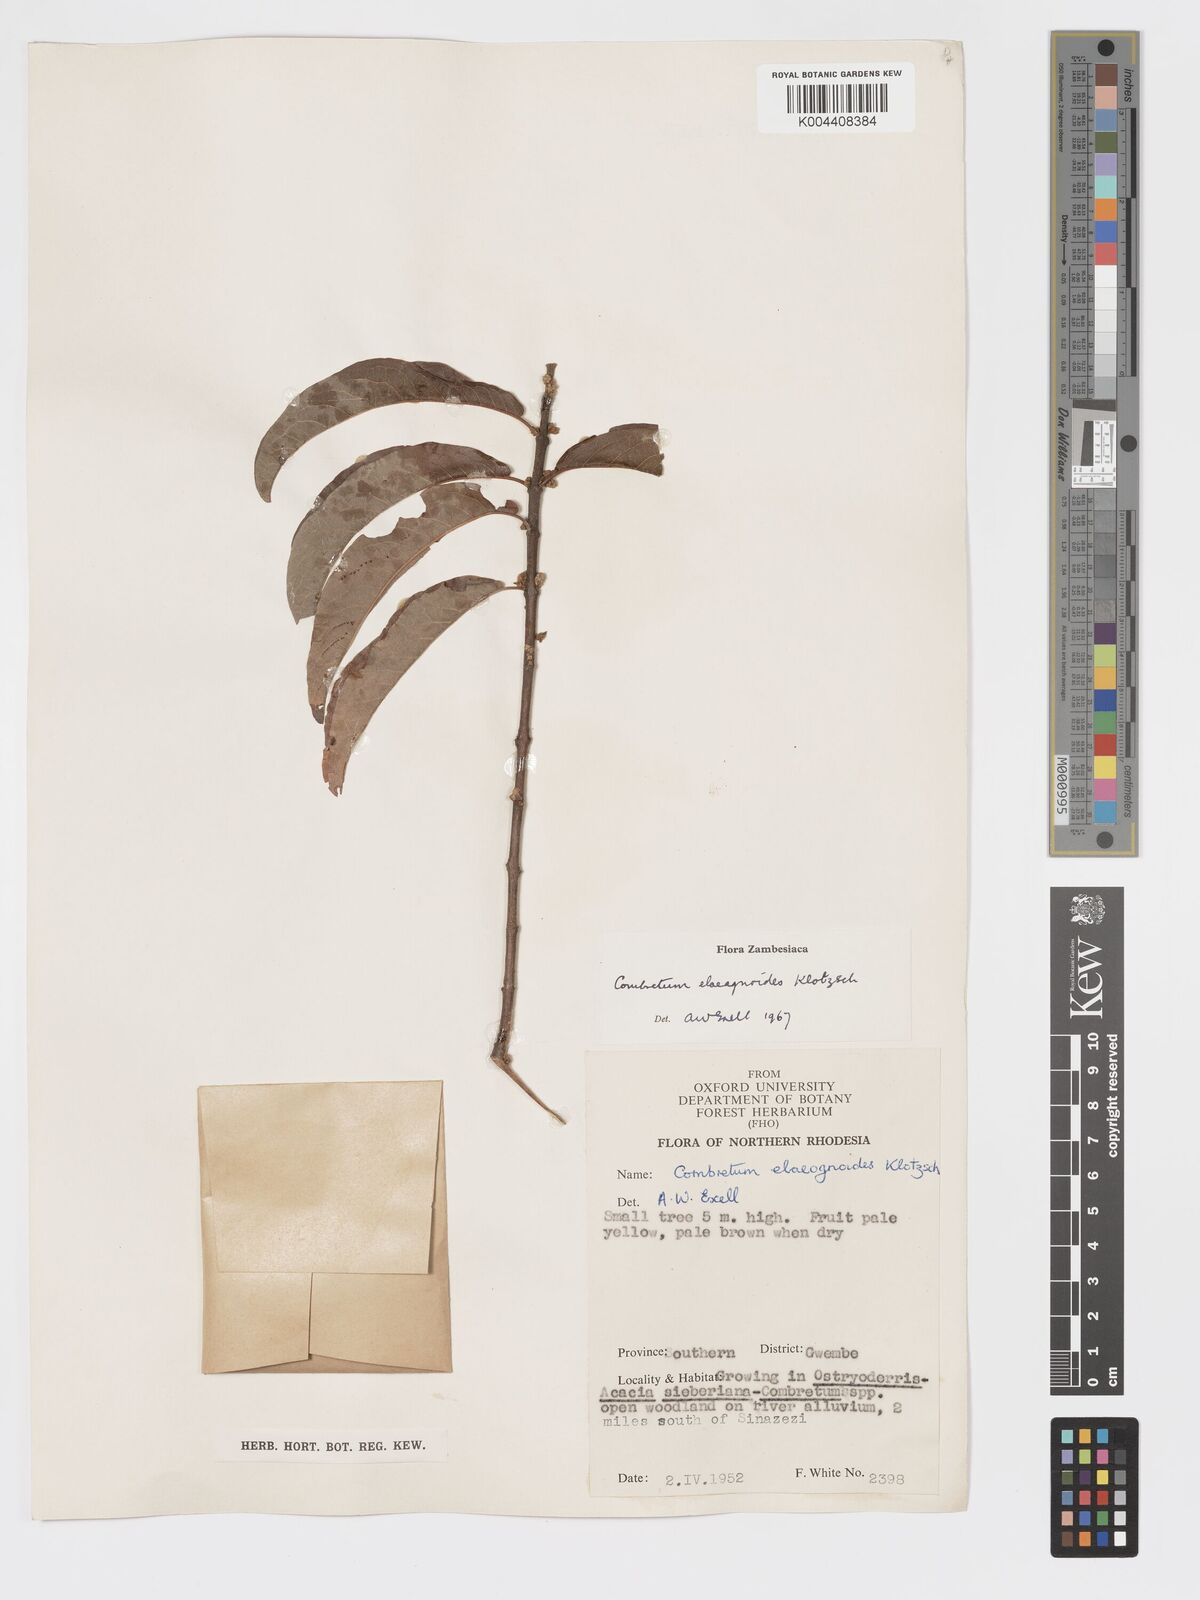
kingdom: Plantae
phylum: Tracheophyta
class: Magnoliopsida
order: Myrtales
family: Combretaceae
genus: Combretum
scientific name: Combretum elaeagnoides
